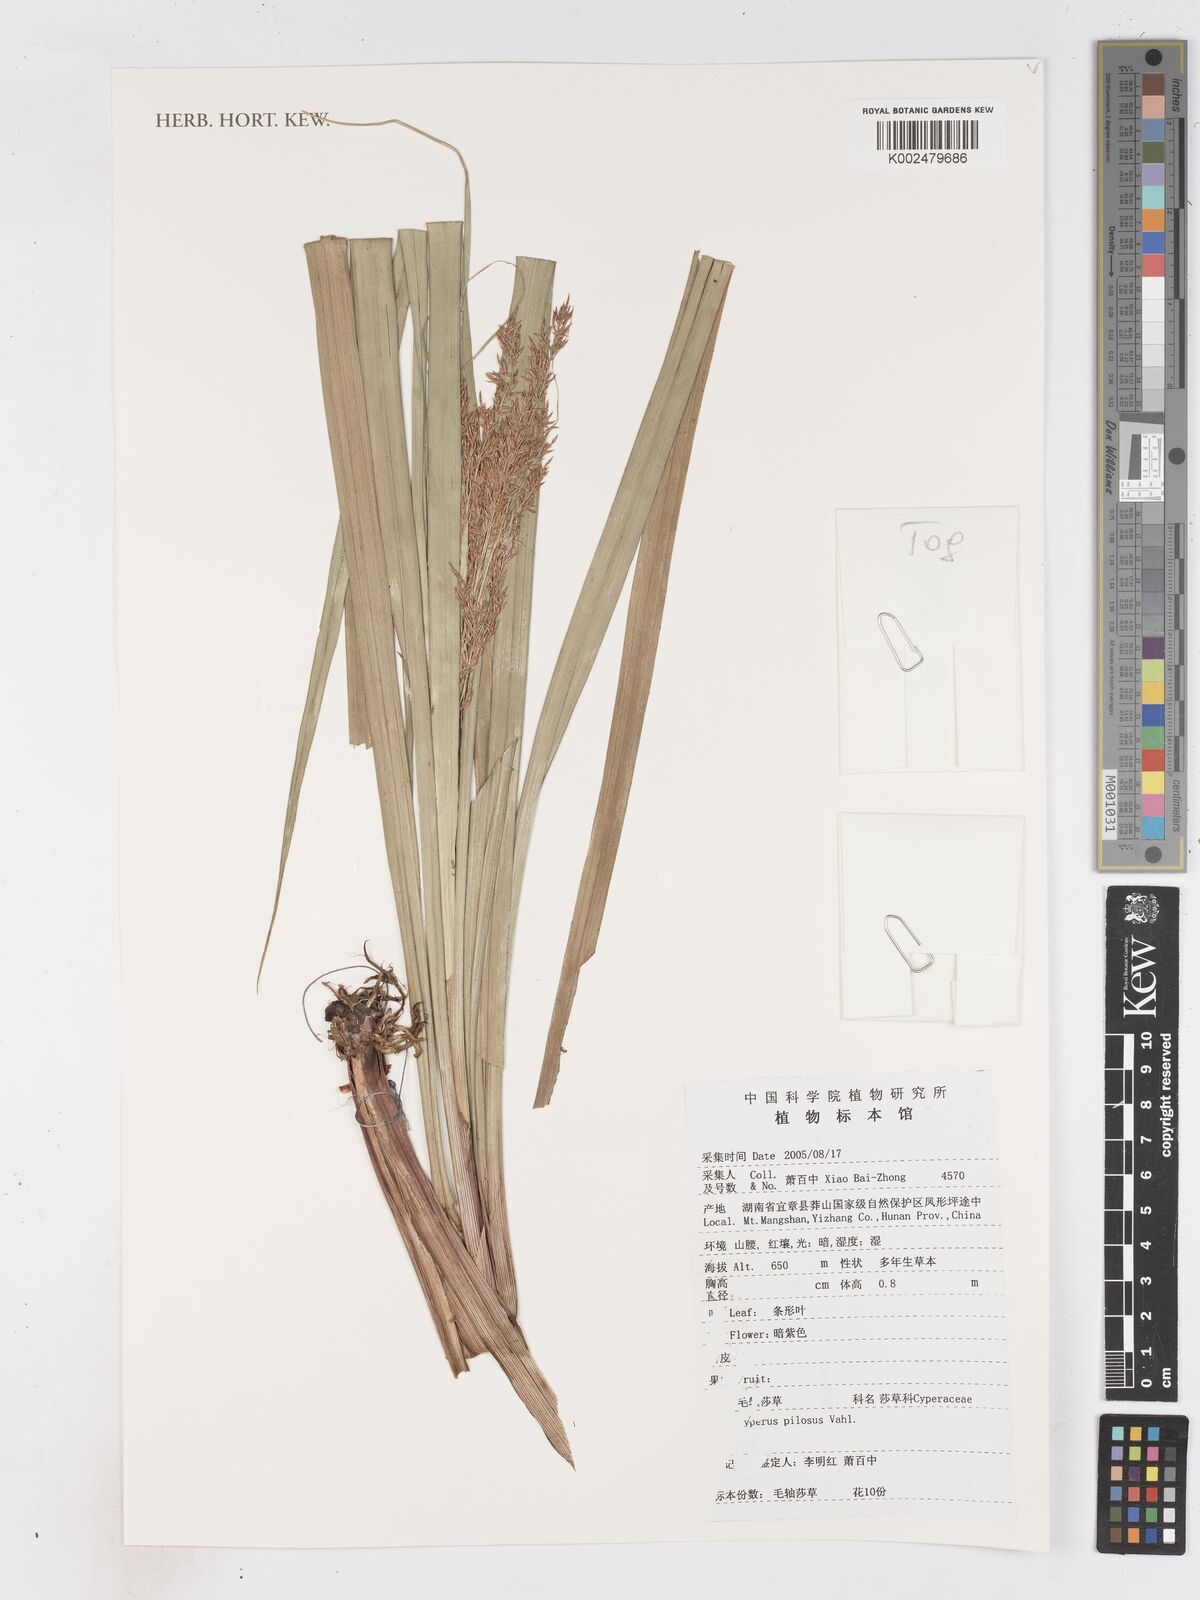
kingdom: Plantae
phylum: Tracheophyta
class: Liliopsida
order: Poales
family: Cyperaceae
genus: Cyperus
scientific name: Cyperus pilosus
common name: Fuzzy flatsedge
